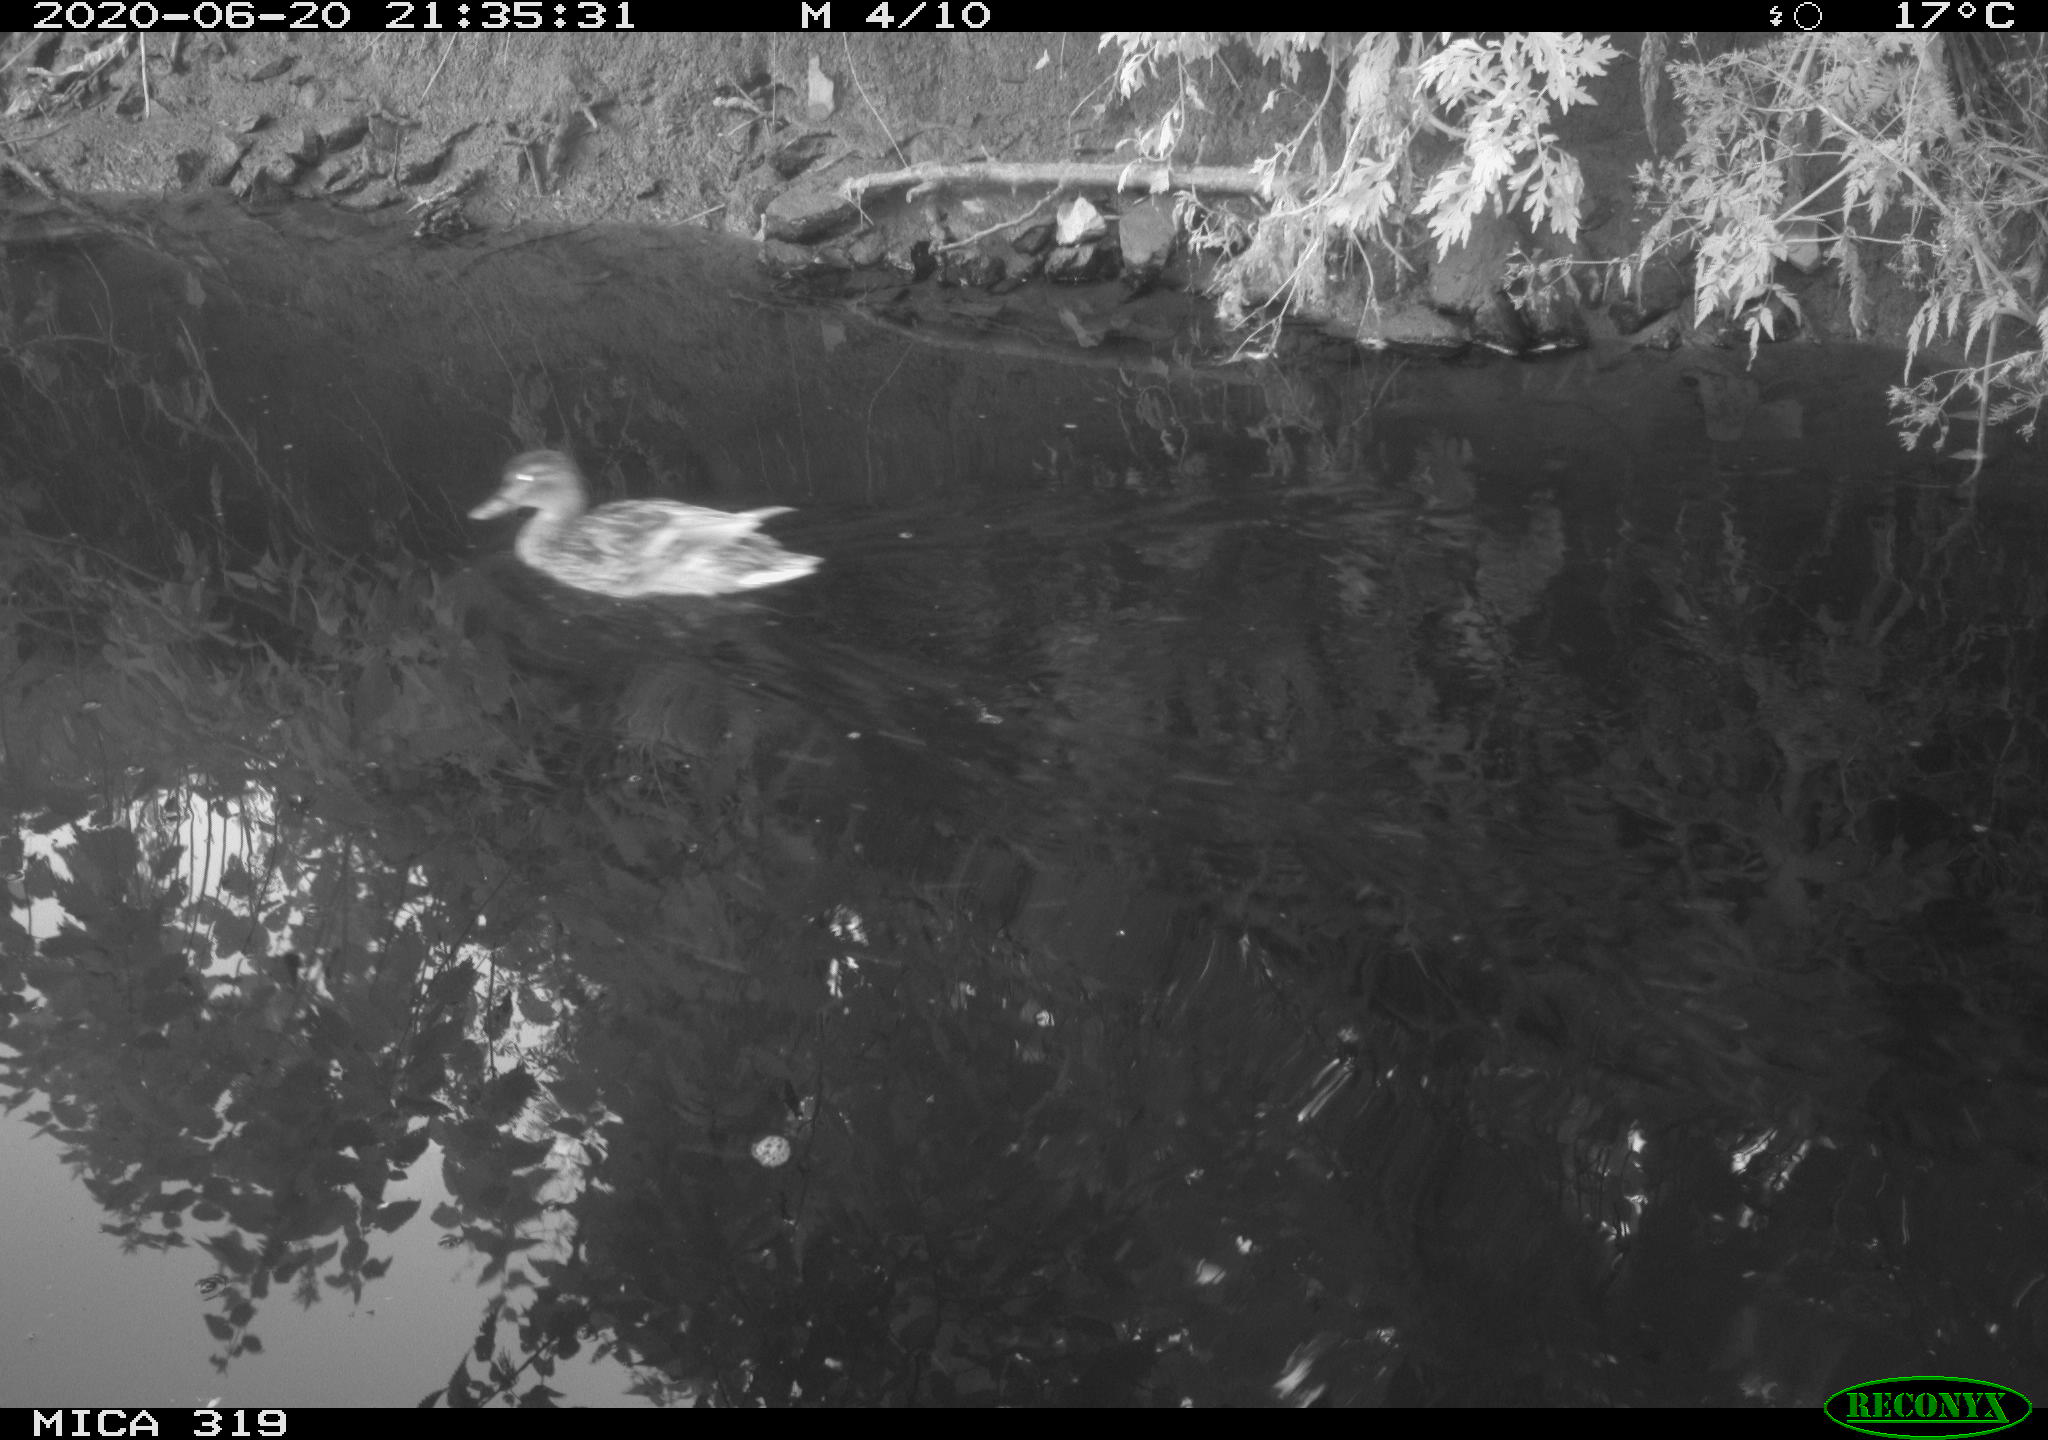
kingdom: Animalia
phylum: Chordata
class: Aves
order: Anseriformes
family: Anatidae
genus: Anas
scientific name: Anas platyrhynchos
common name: Mallard
